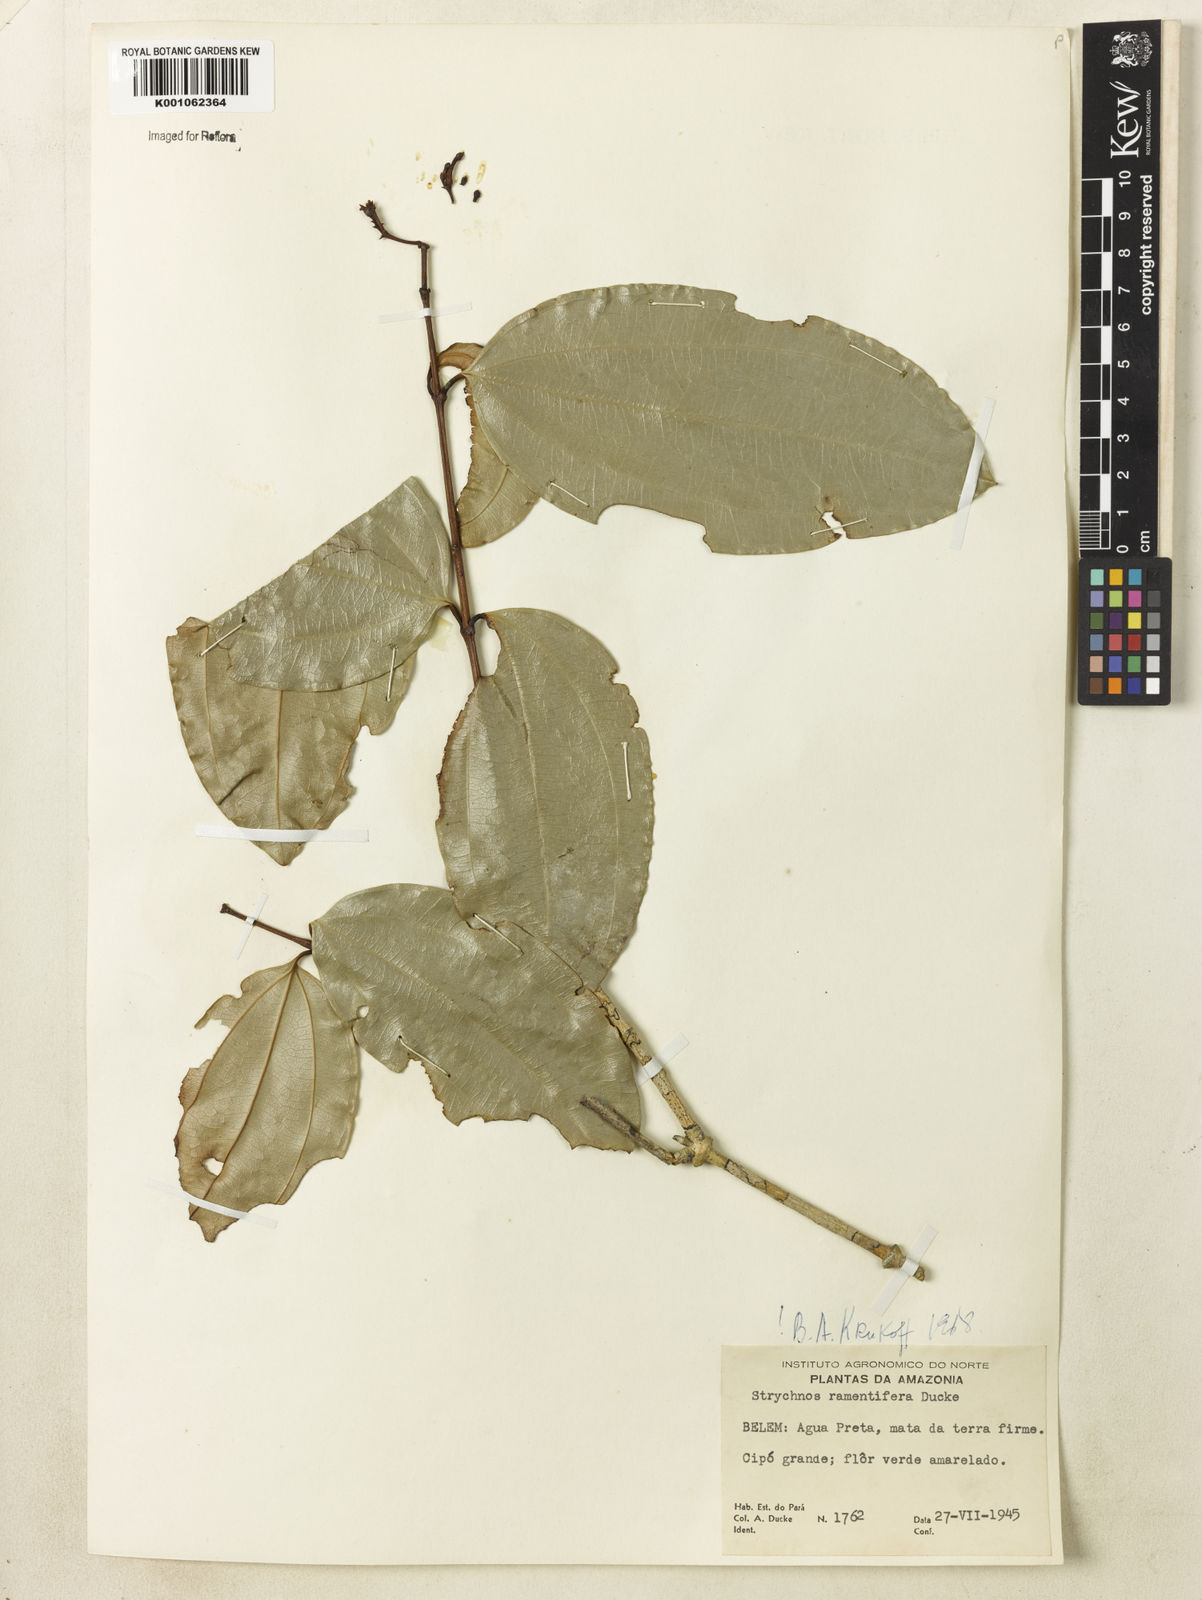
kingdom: Plantae
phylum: Tracheophyta
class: Magnoliopsida
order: Gentianales
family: Loganiaceae
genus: Strychnos
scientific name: Strychnos ramentifera
